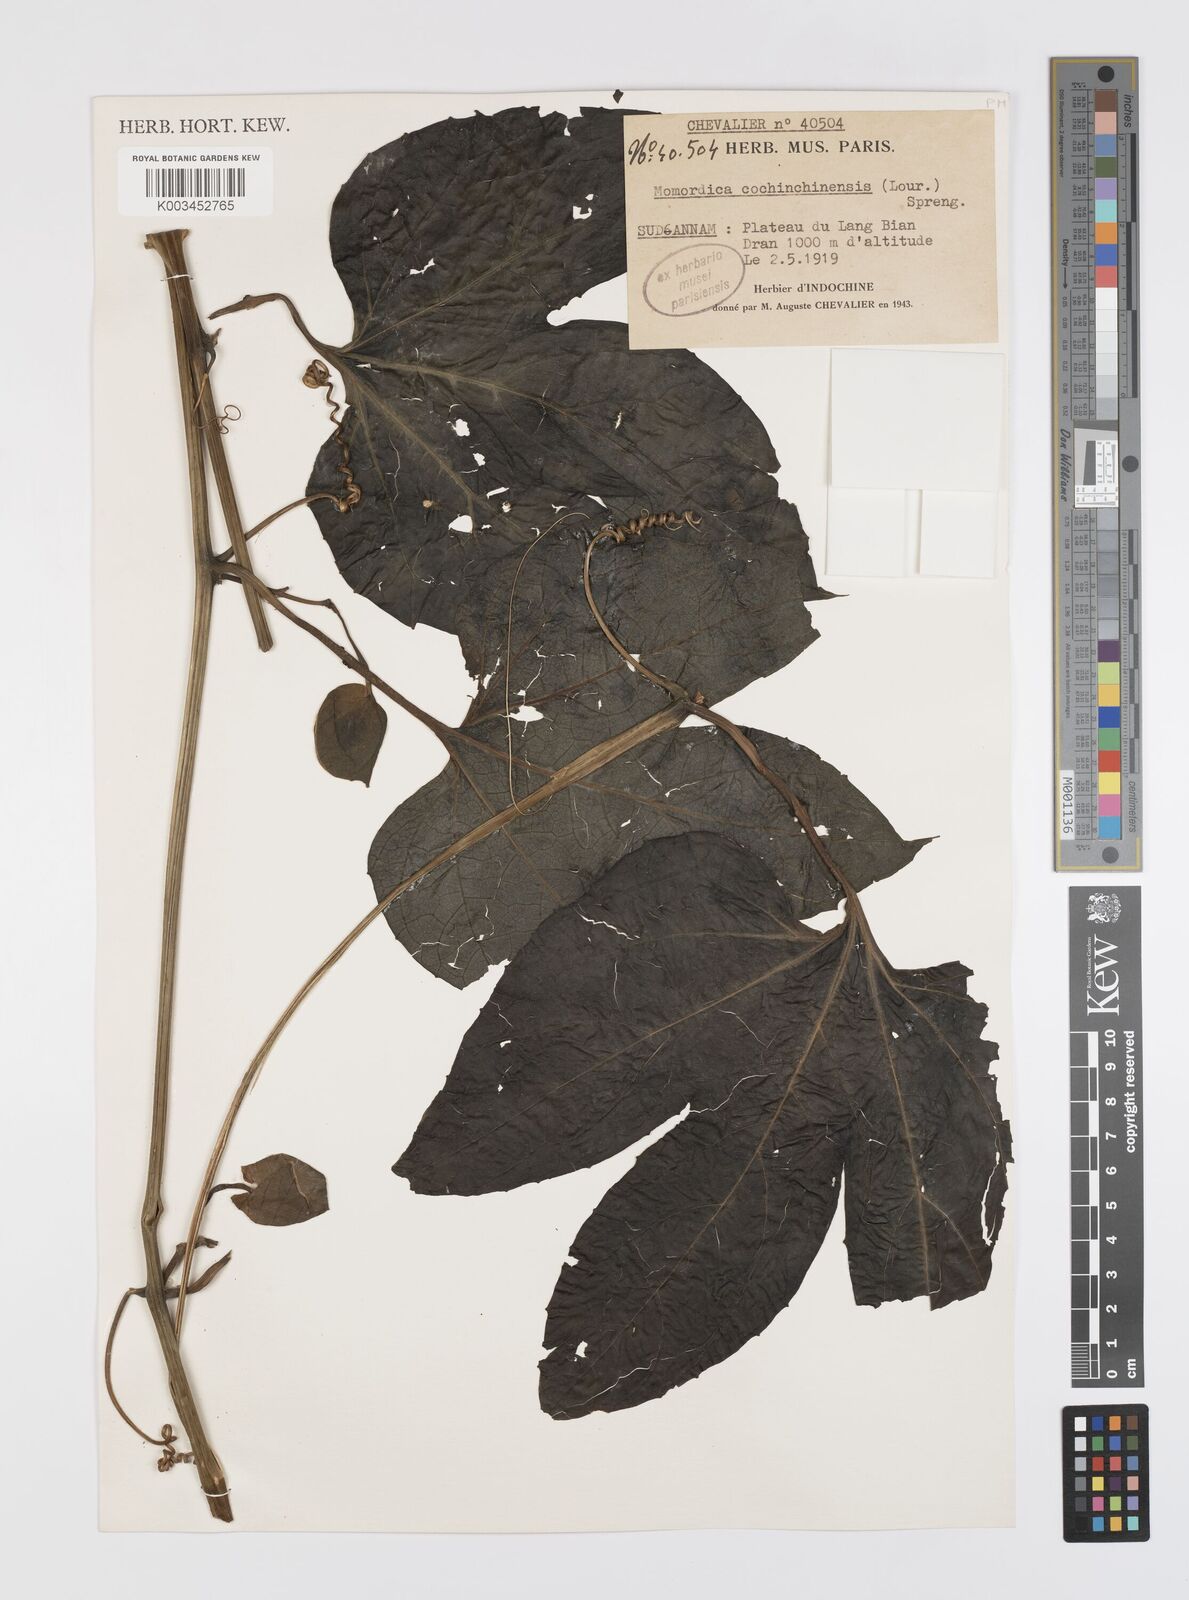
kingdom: Plantae
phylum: Tracheophyta
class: Magnoliopsida
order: Cucurbitales
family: Cucurbitaceae
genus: Momordica
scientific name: Momordica cochinchinensis
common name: Chinese bitter-cucumber
